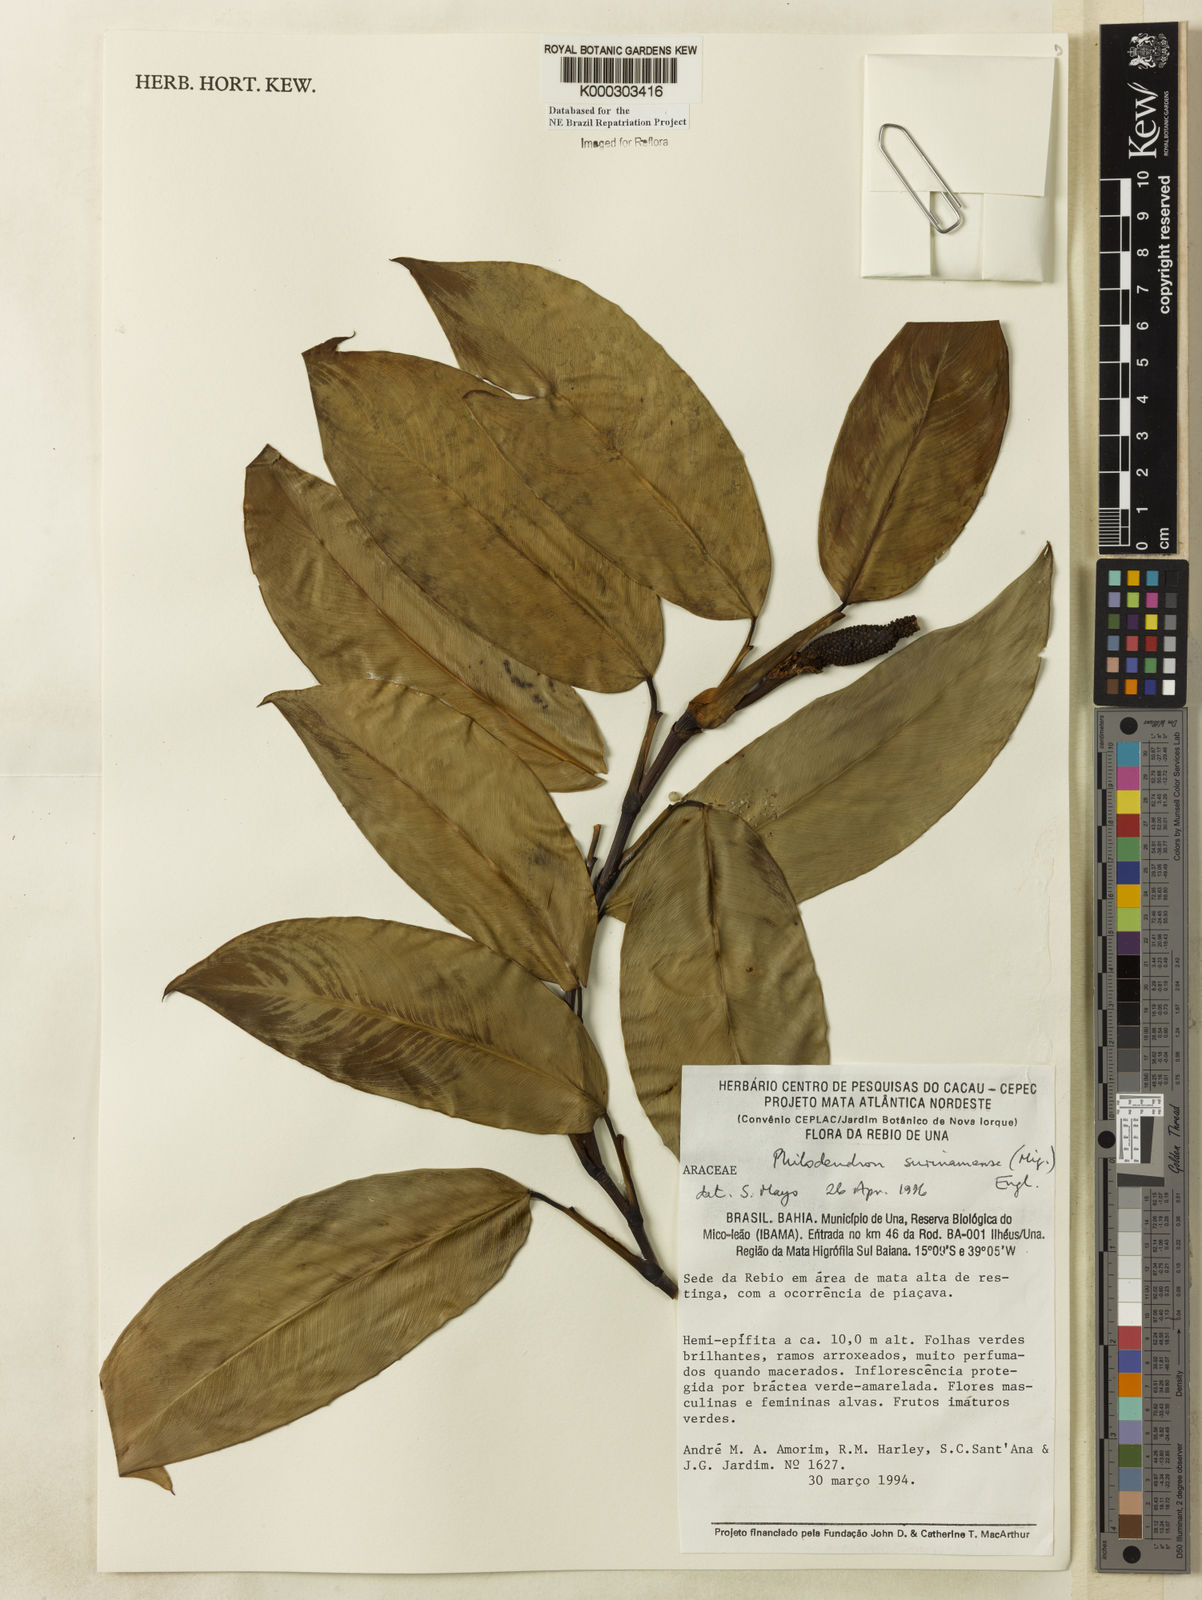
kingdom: Plantae
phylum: Tracheophyta
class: Liliopsida
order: Alismatales
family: Araceae
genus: Philodendron
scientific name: Philodendron surinamense
